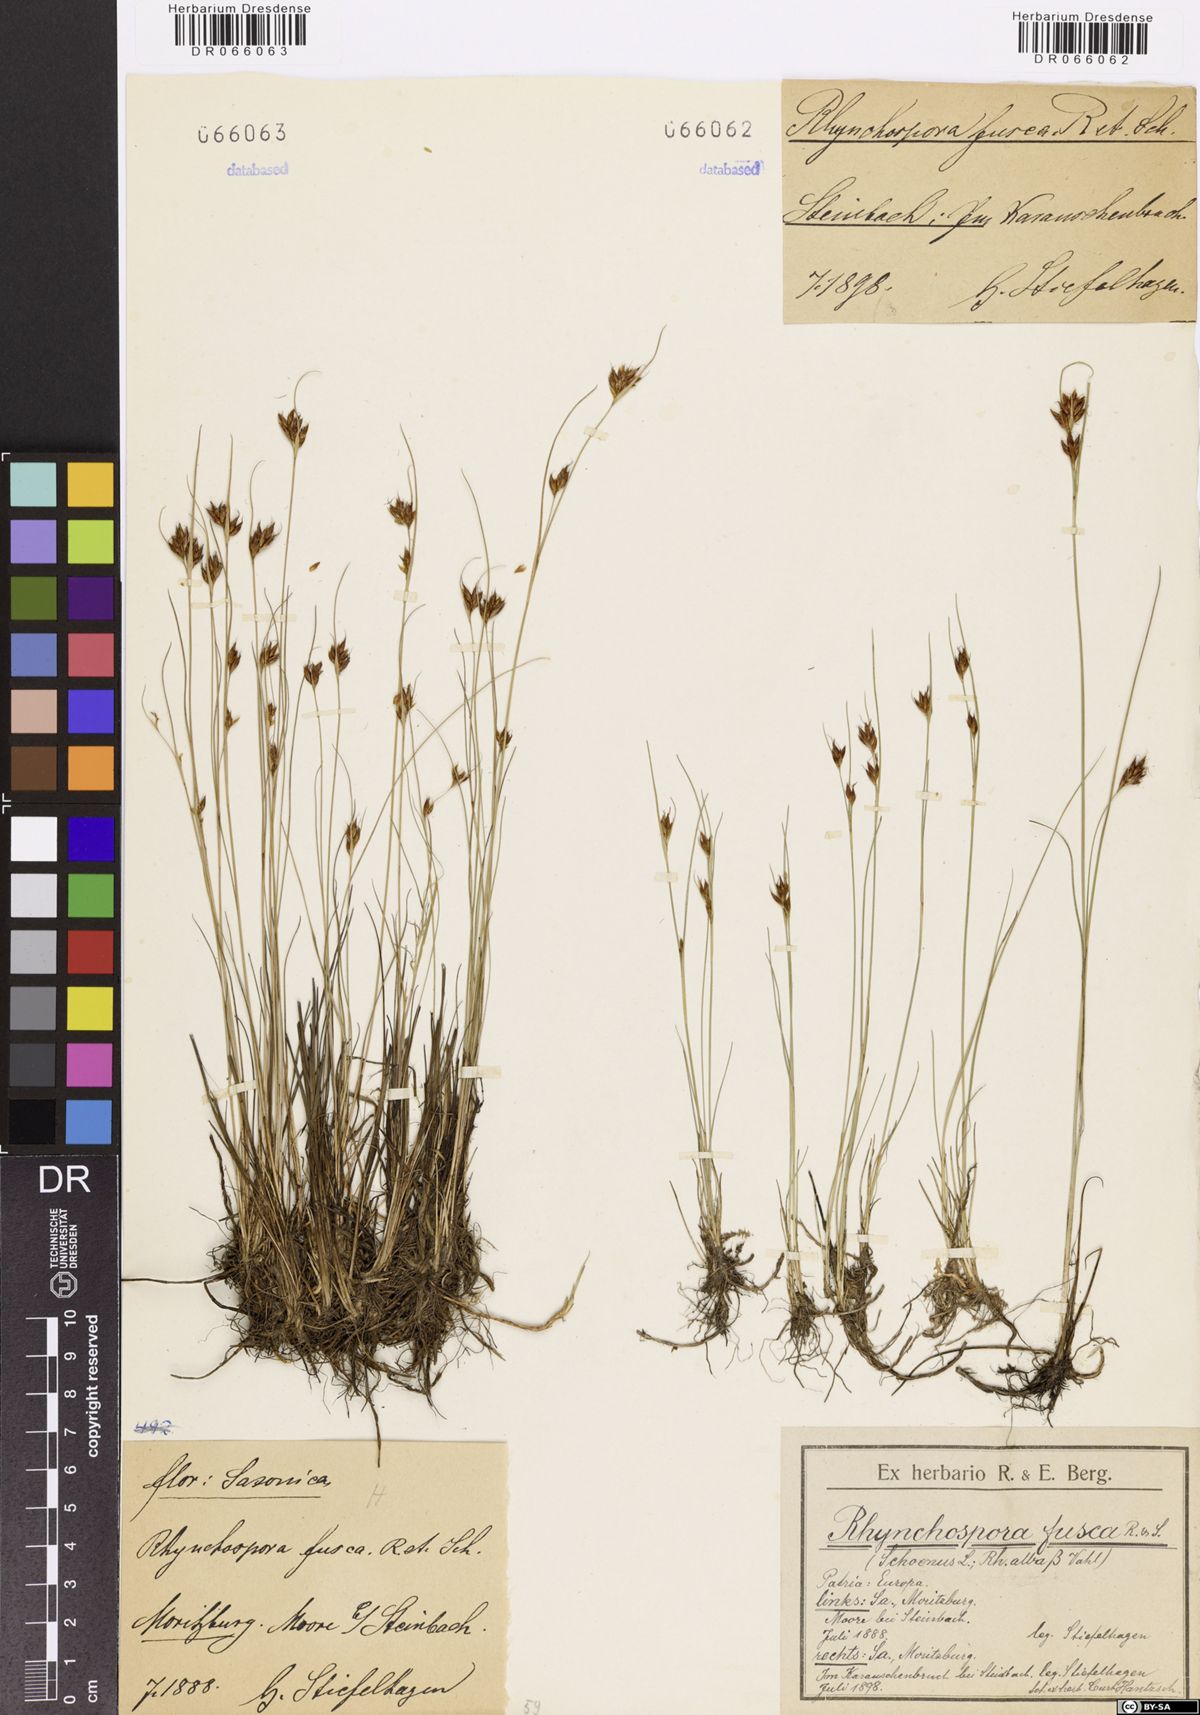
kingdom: Plantae
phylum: Tracheophyta
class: Liliopsida
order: Poales
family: Cyperaceae
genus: Rhynchospora
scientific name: Rhynchospora fusca
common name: Brown beak-sedge
